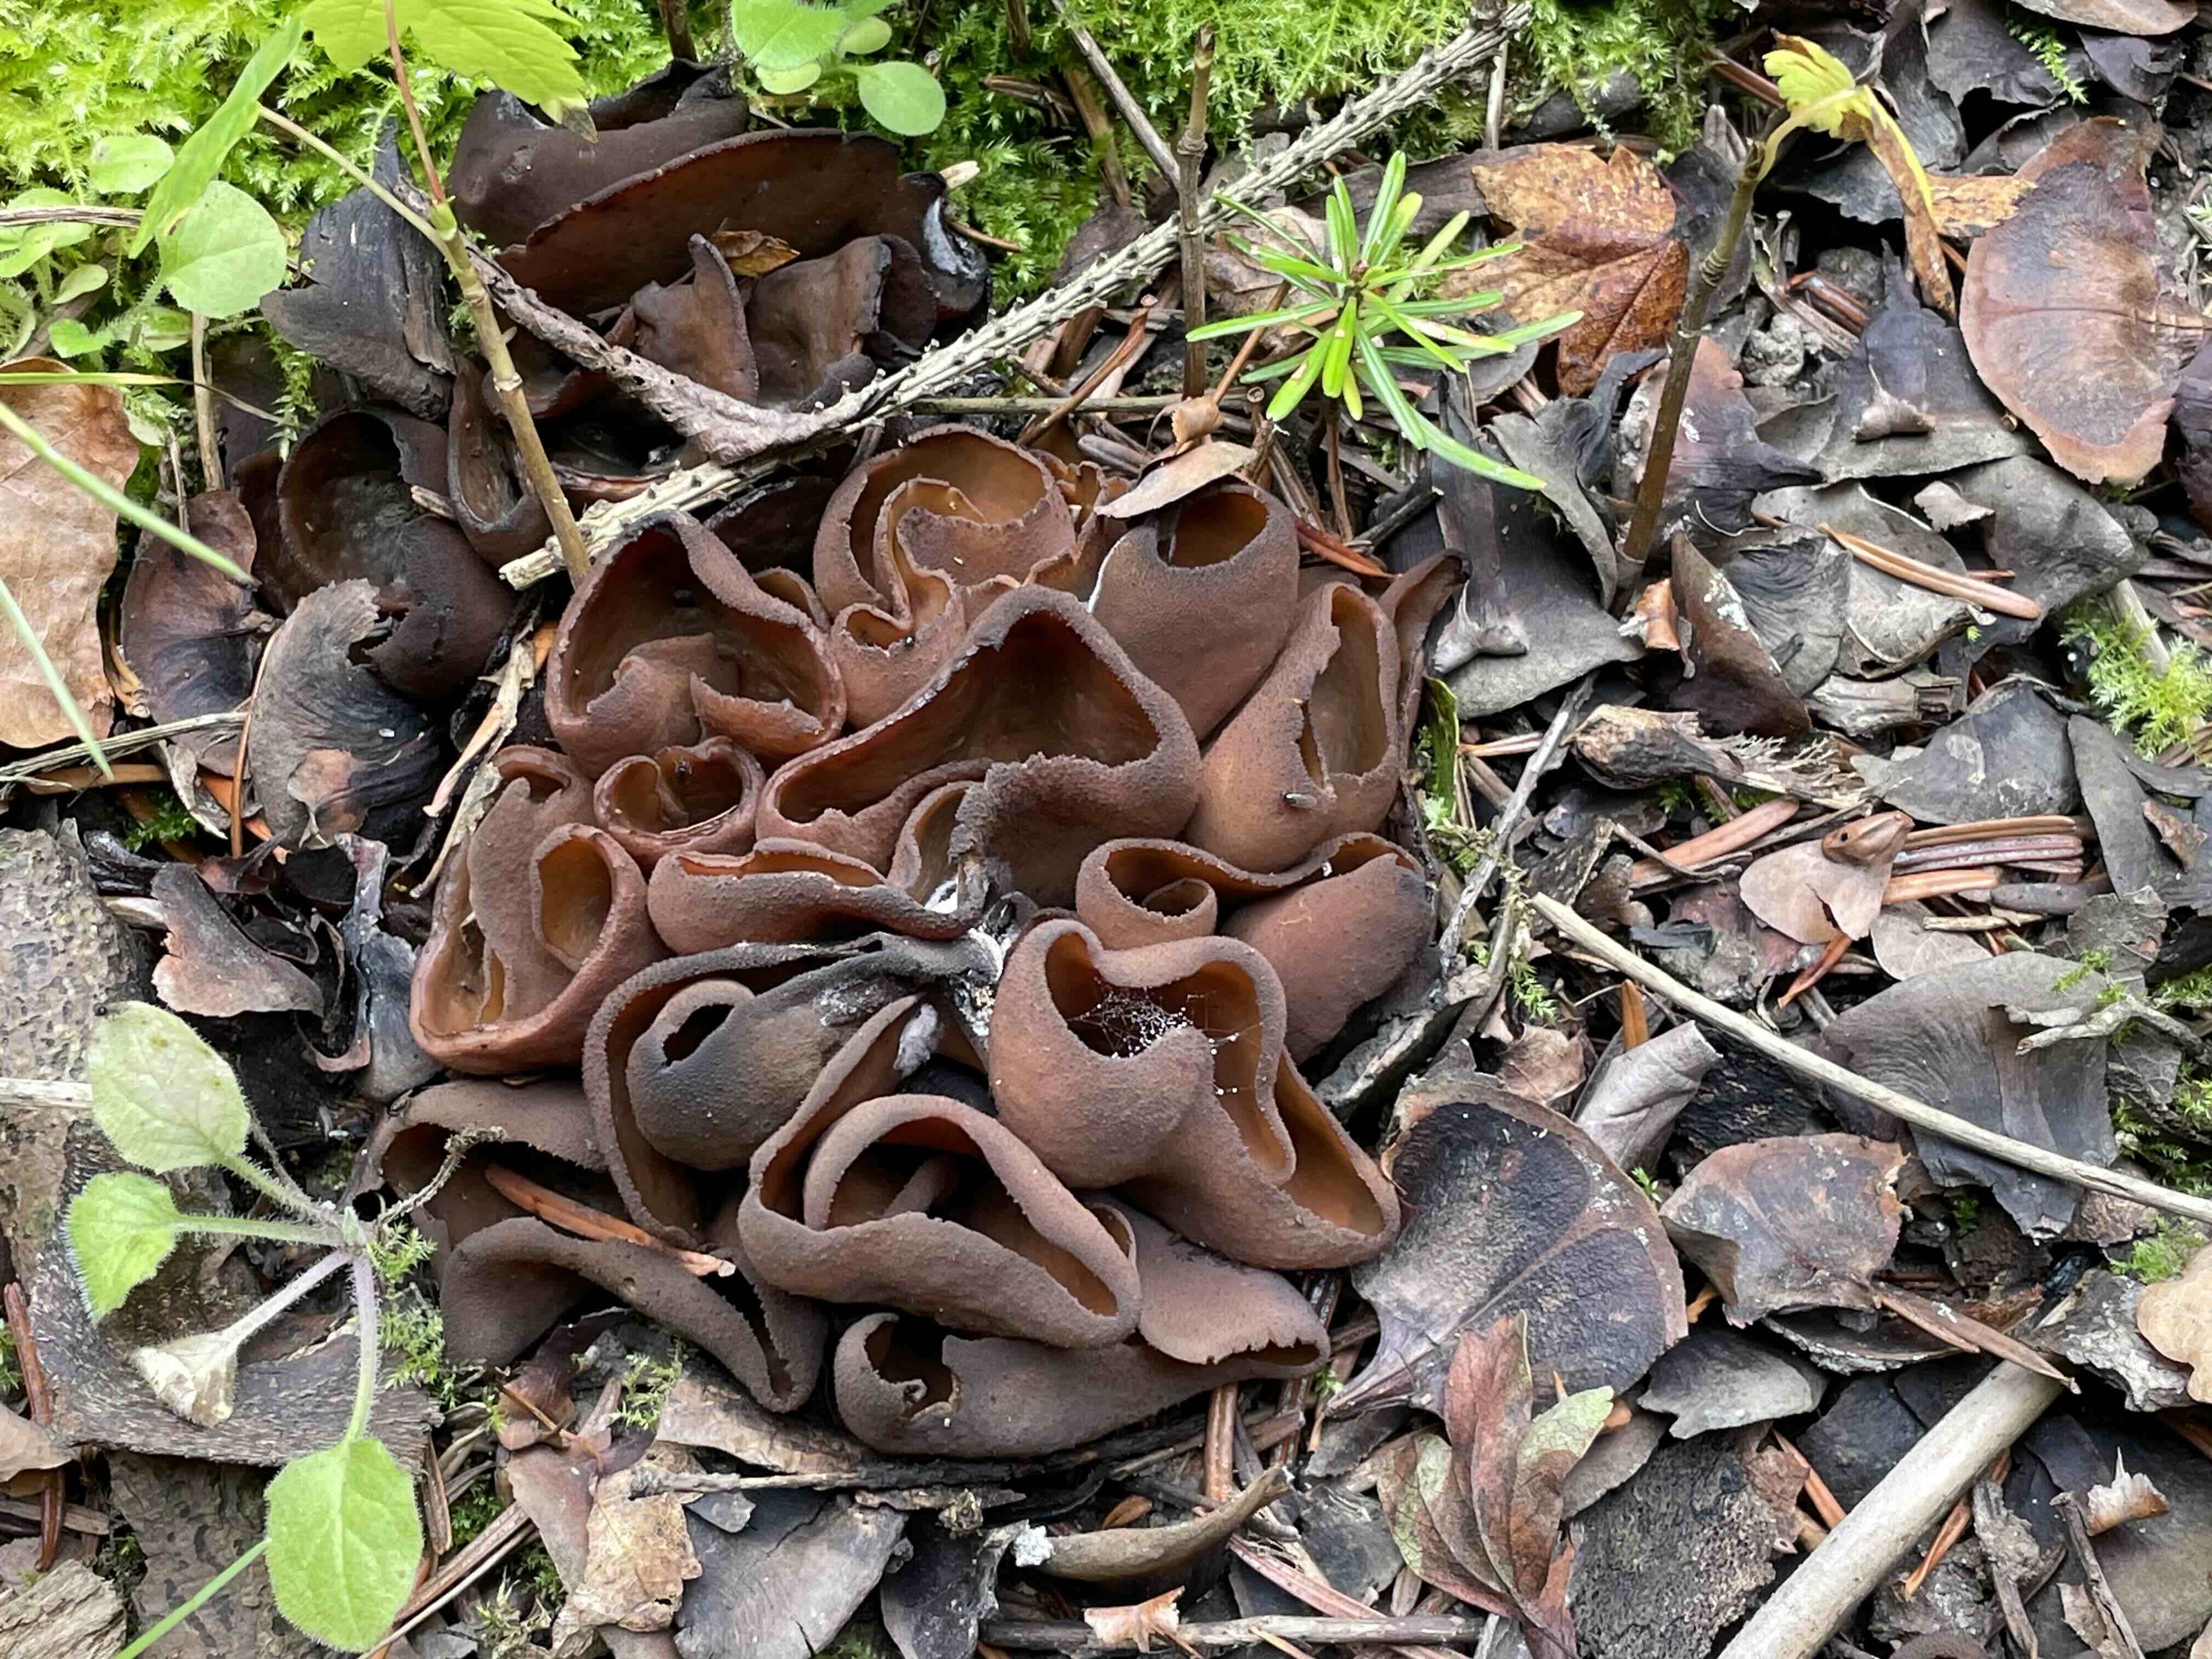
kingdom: Fungi
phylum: Ascomycota
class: Pezizomycetes
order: Pezizales
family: Otideaceae
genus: Otidea
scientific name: Otidea bufonia
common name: brun ørebæger
